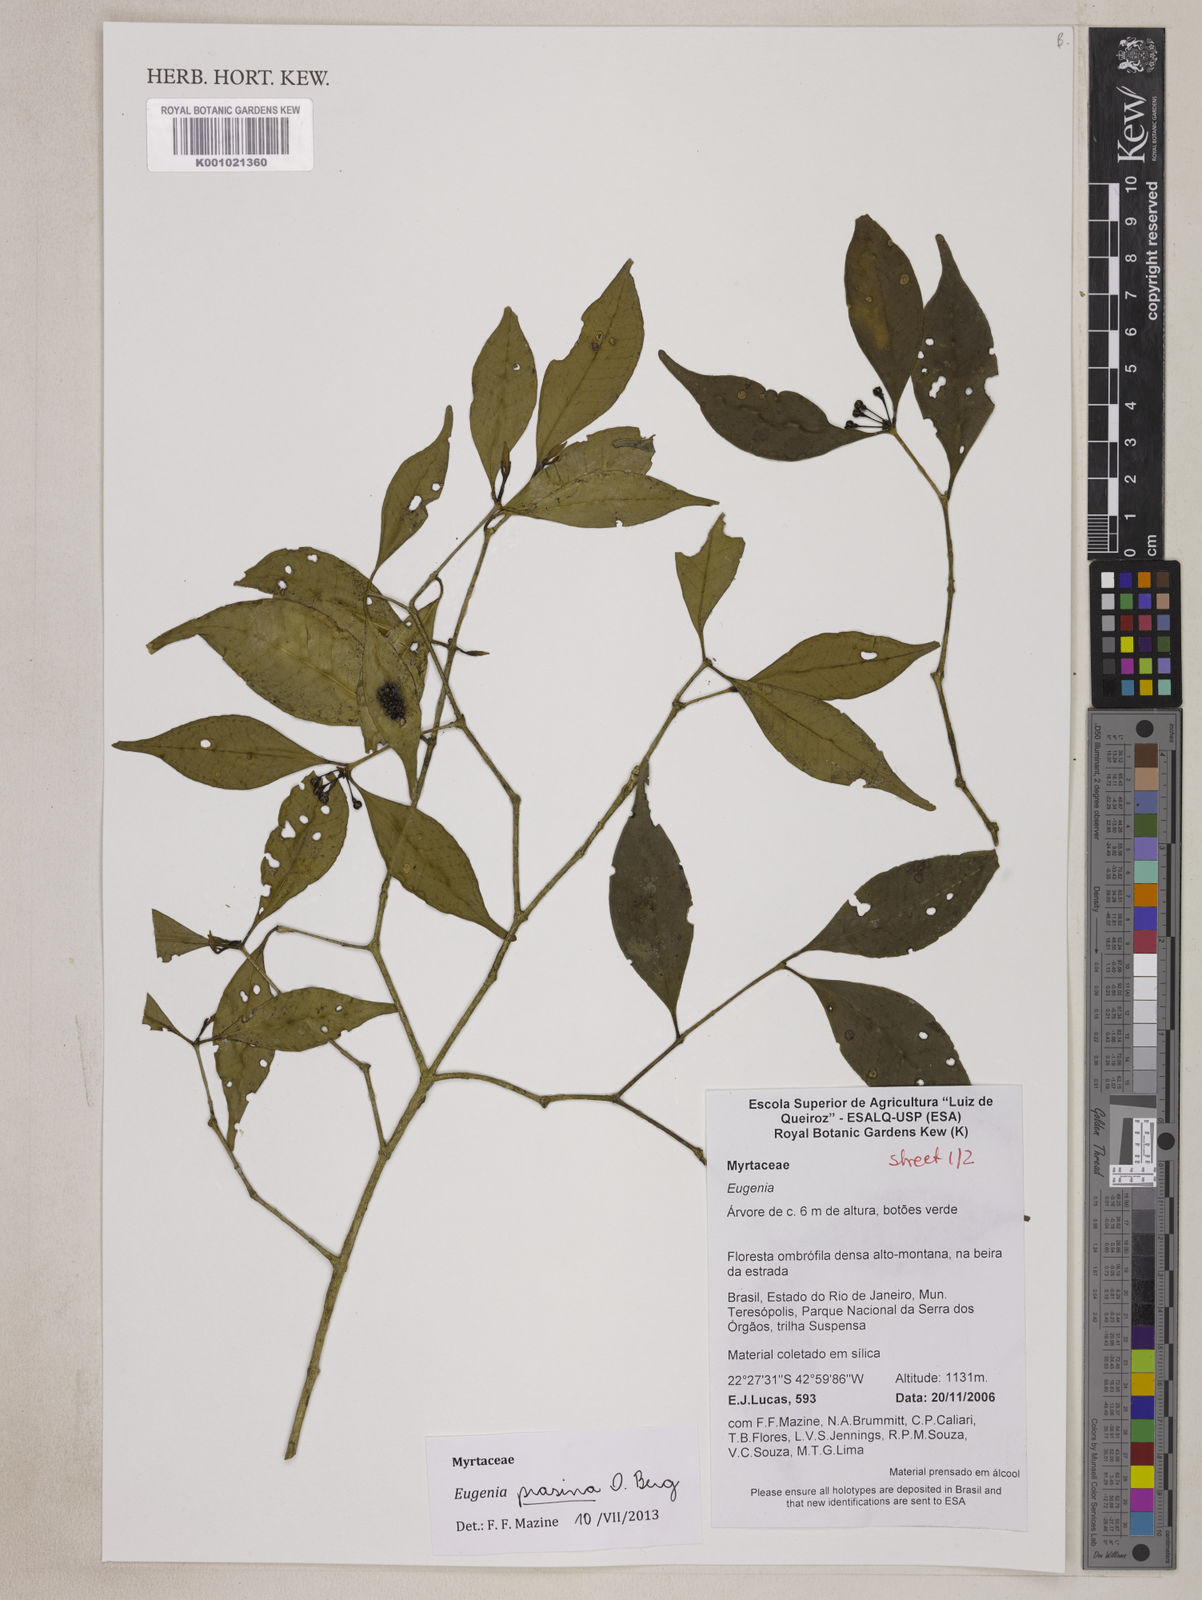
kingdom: Plantae
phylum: Tracheophyta
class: Magnoliopsida
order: Myrtales
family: Myrtaceae
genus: Eugenia
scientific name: Eugenia prasina
